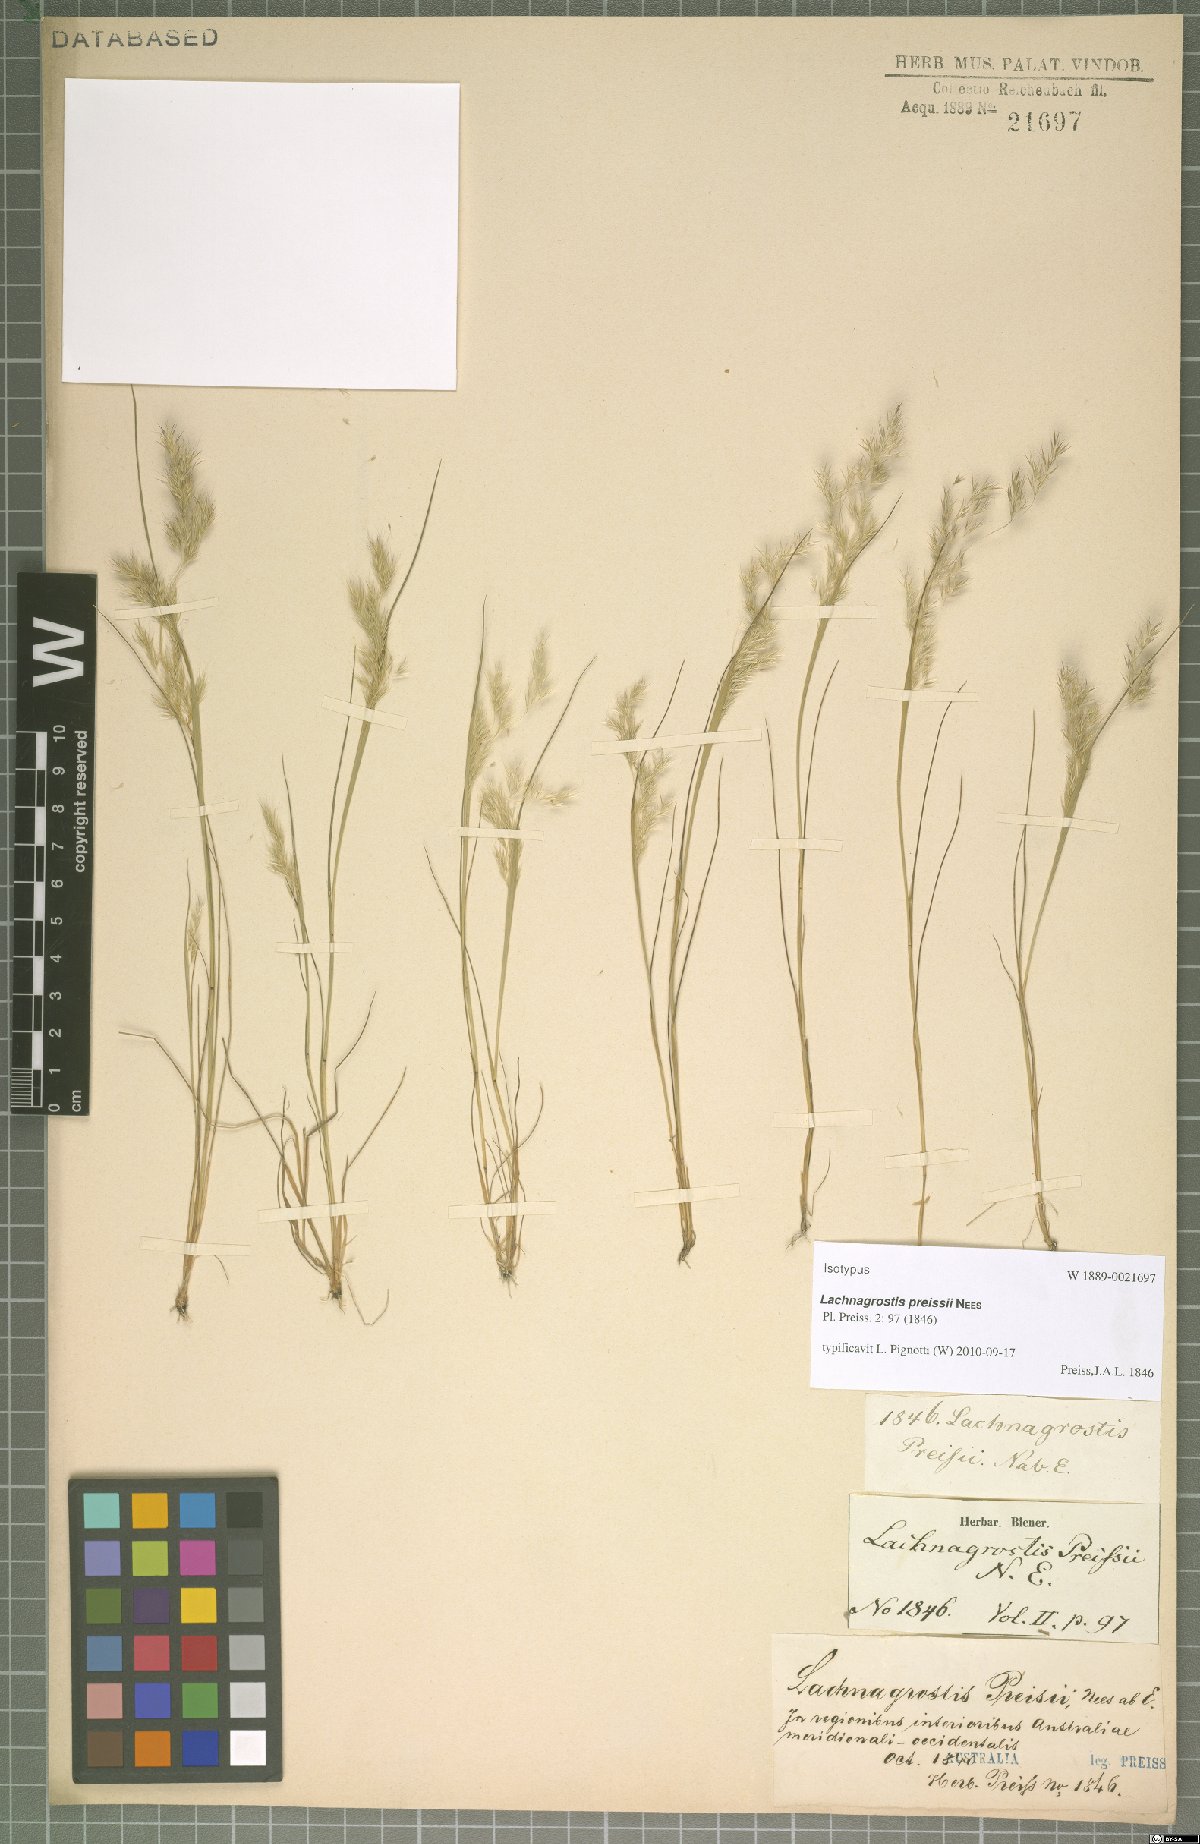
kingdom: Plantae
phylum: Tracheophyta
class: Liliopsida
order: Poales
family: Poaceae
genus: Lachnagrostis
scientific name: Lachnagrostis preissii
